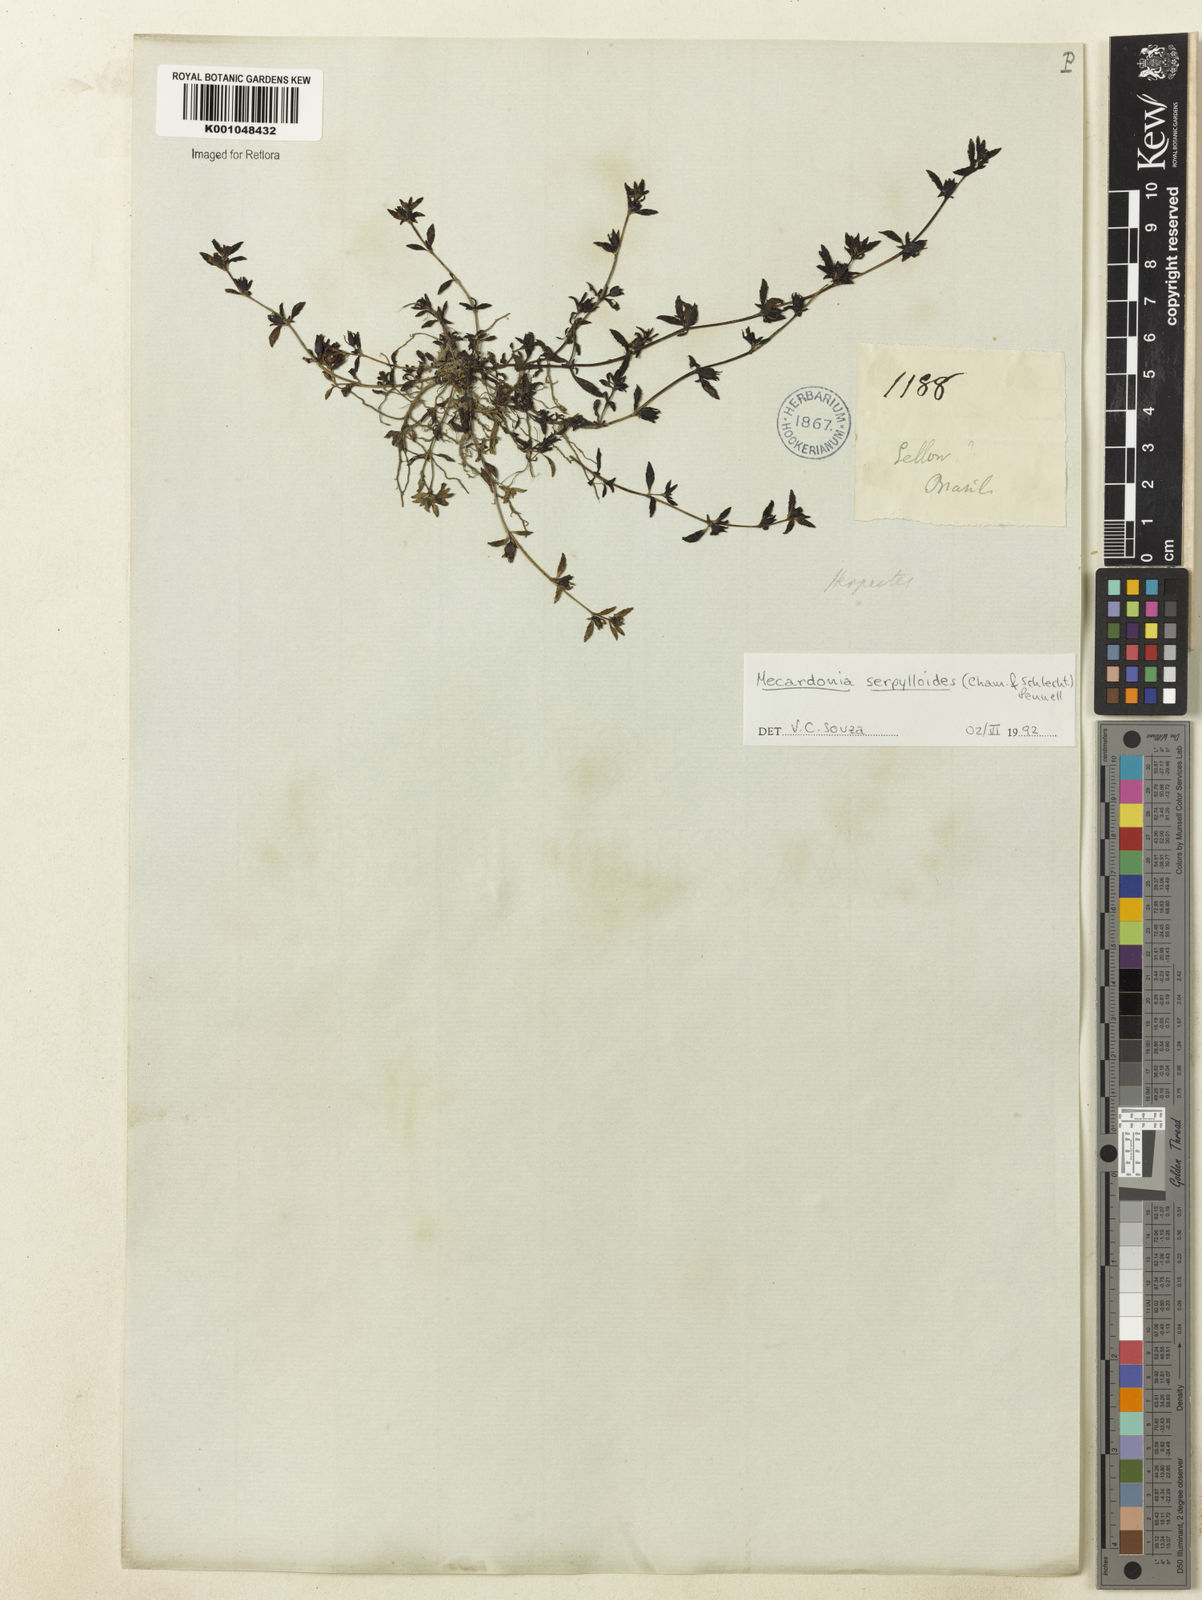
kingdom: Plantae
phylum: Tracheophyta
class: Magnoliopsida
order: Lamiales
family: Plantaginaceae
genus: Mecardonia
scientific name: Mecardonia serpylloides
